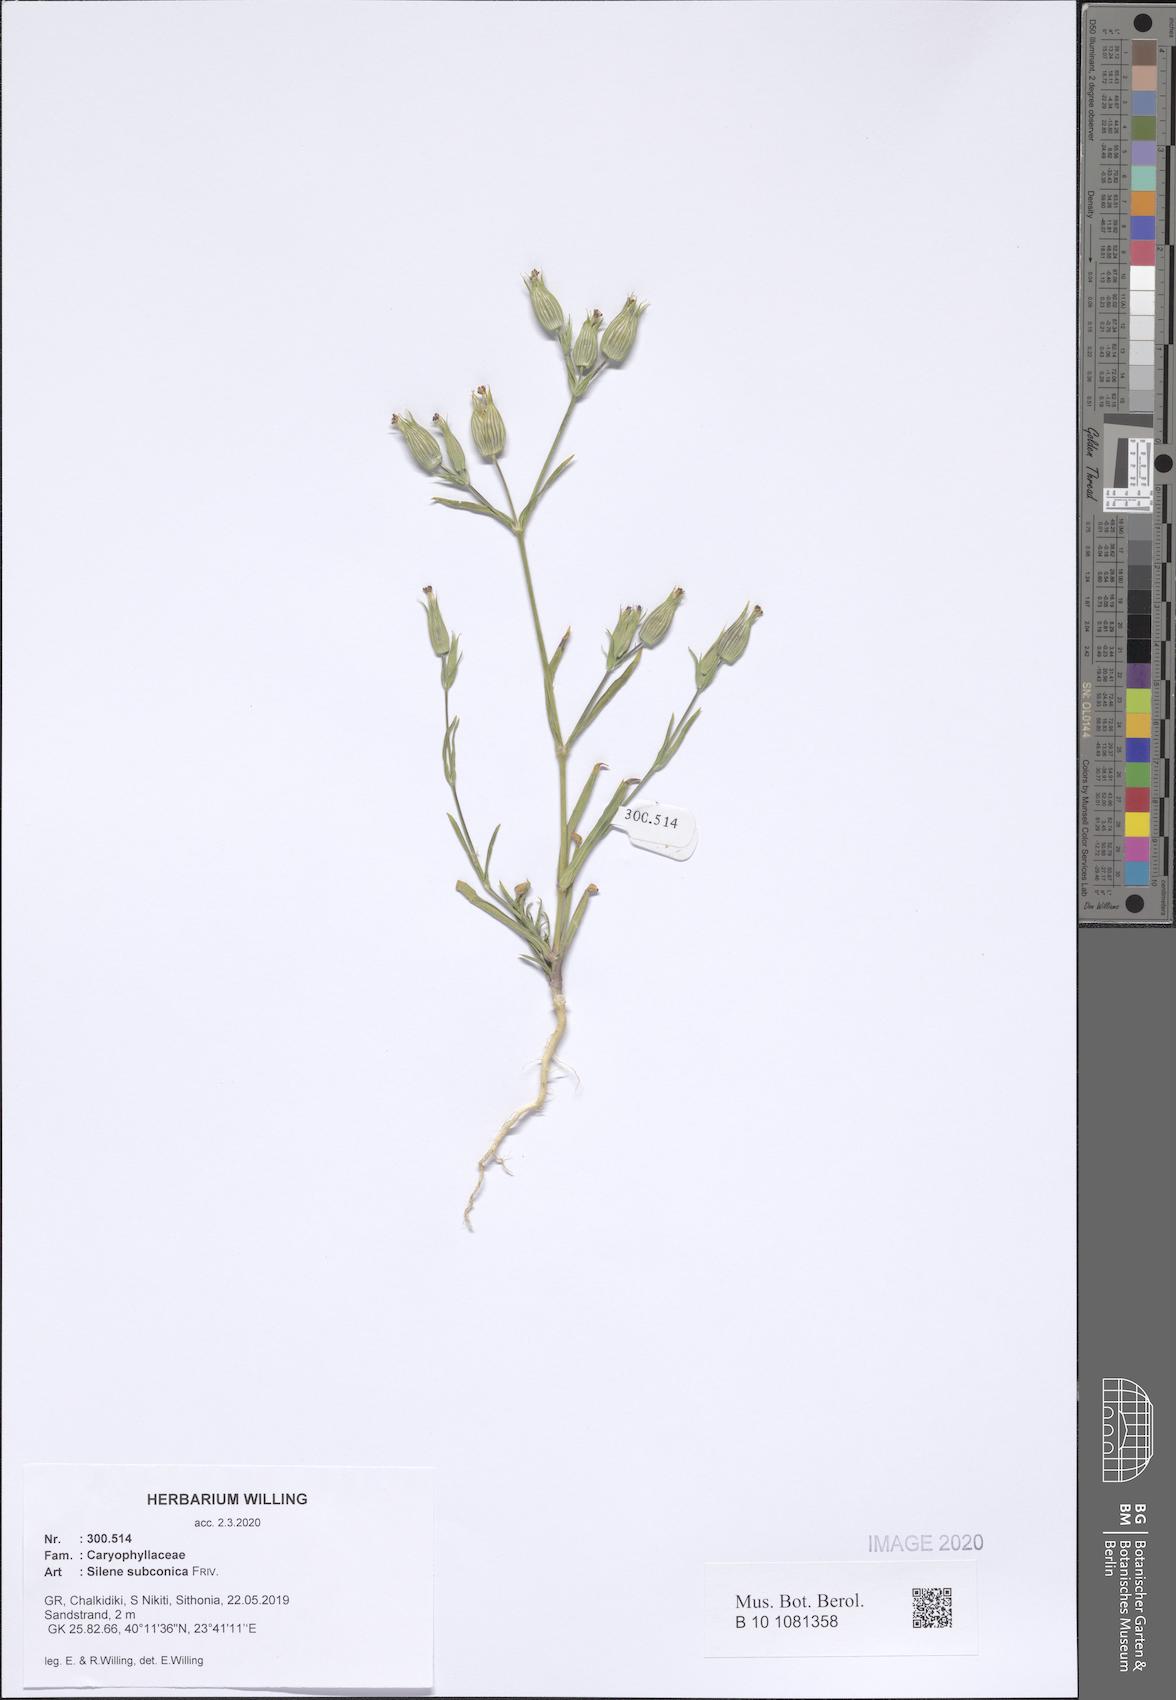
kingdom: Plantae
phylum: Tracheophyta
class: Magnoliopsida
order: Caryophyllales
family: Caryophyllaceae
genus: Silene
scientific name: Silene subconica
